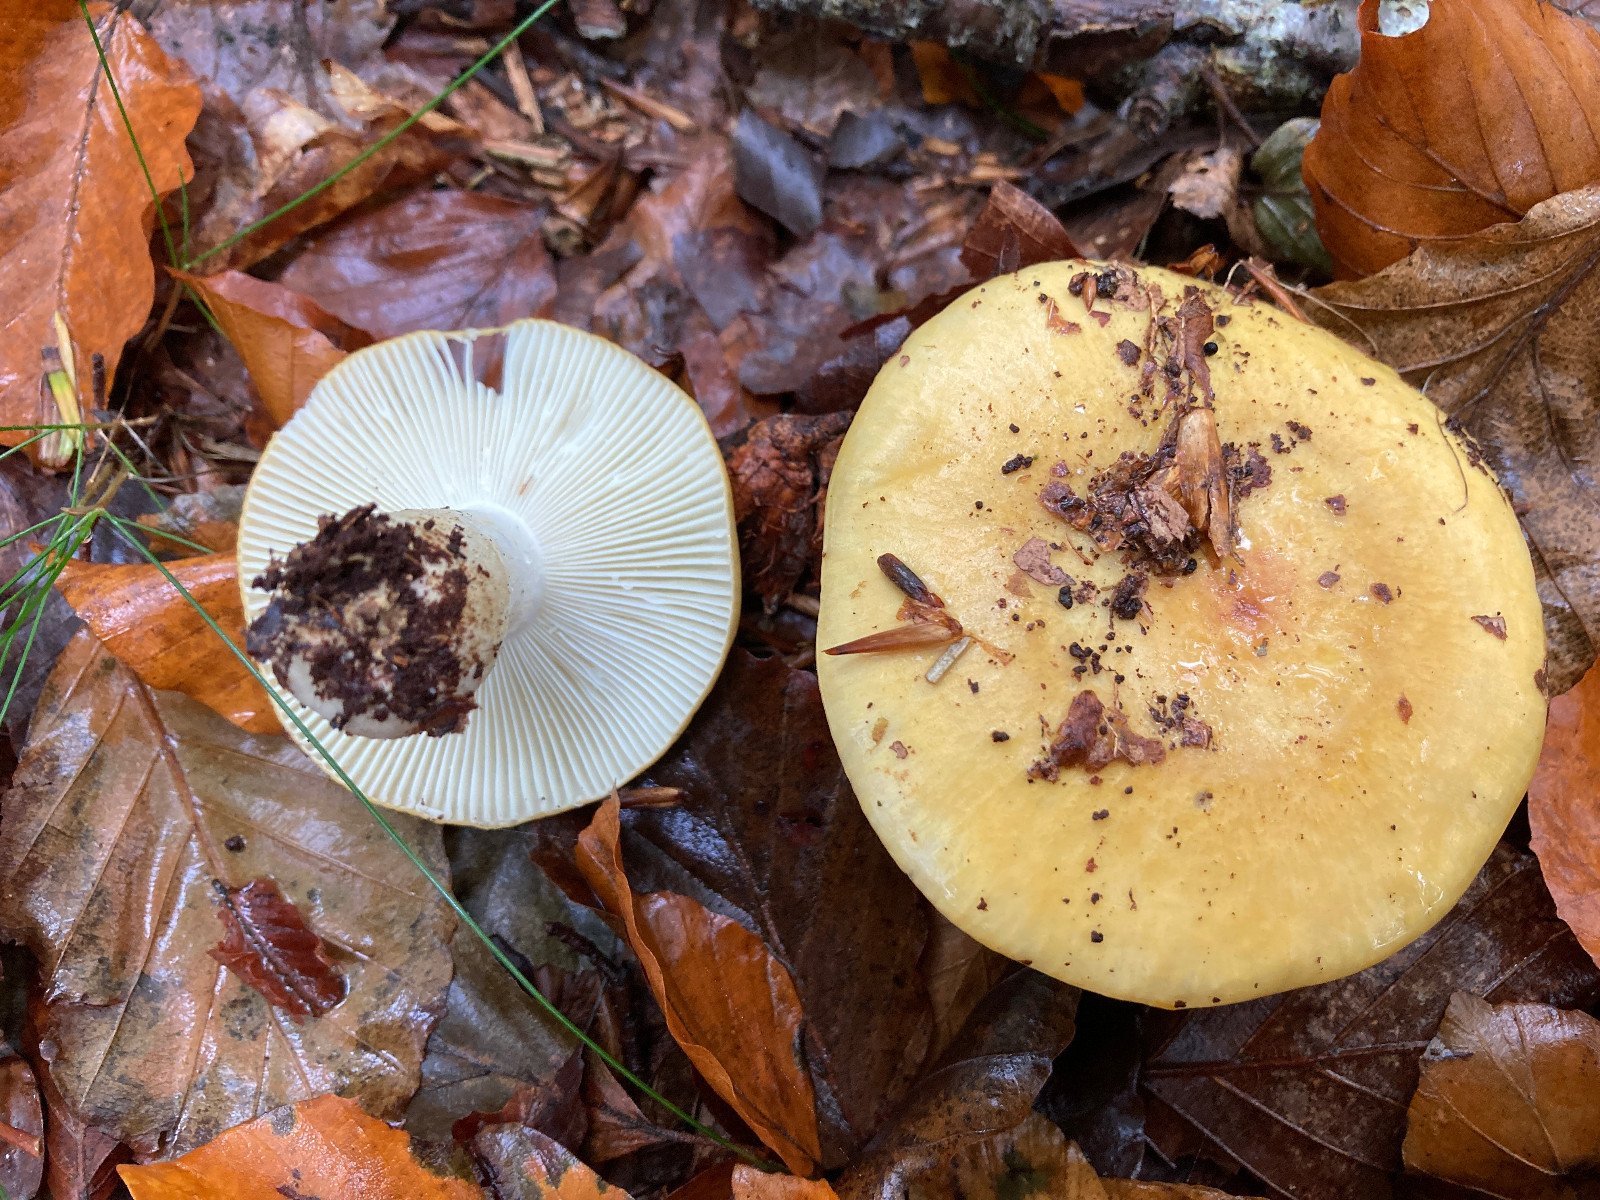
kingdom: Fungi
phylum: Basidiomycota
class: Agaricomycetes
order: Russulales
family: Russulaceae
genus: Russula
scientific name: Russula ochroleuca
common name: okkergul skørhat
